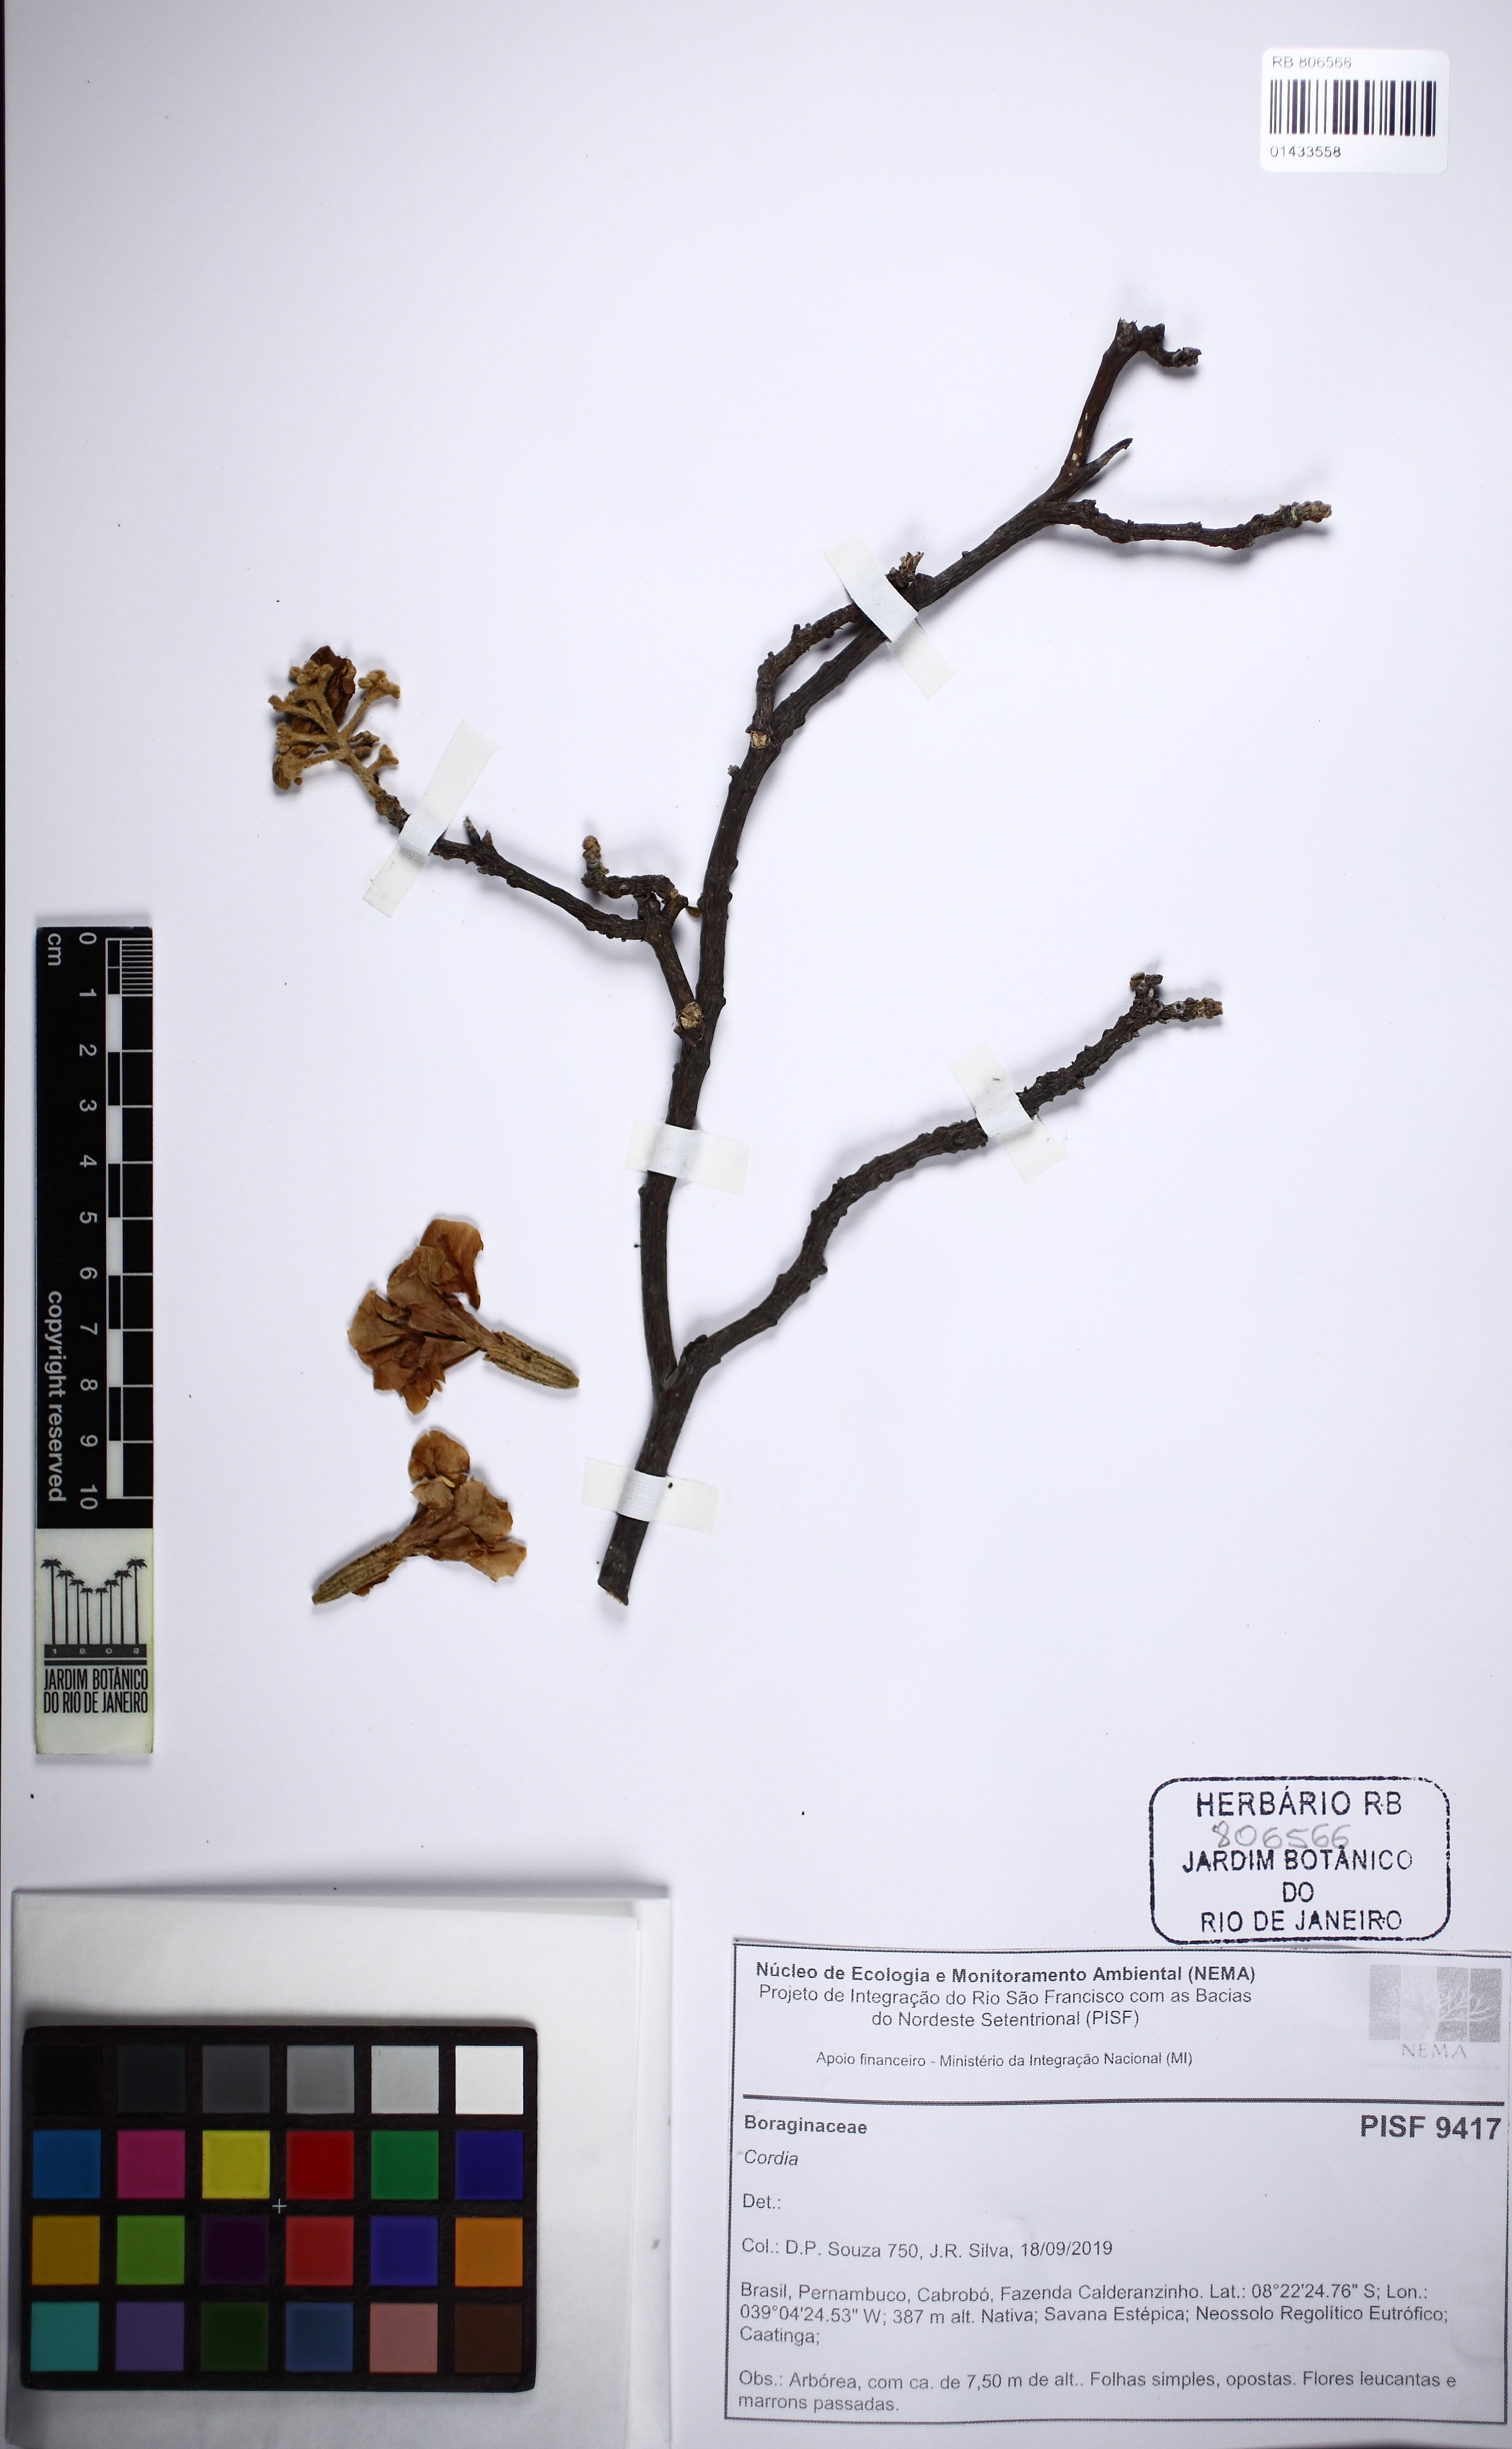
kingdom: Plantae
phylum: Tracheophyta
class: Magnoliopsida
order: Boraginales
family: Cordiaceae
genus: Cordia
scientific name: Cordia
